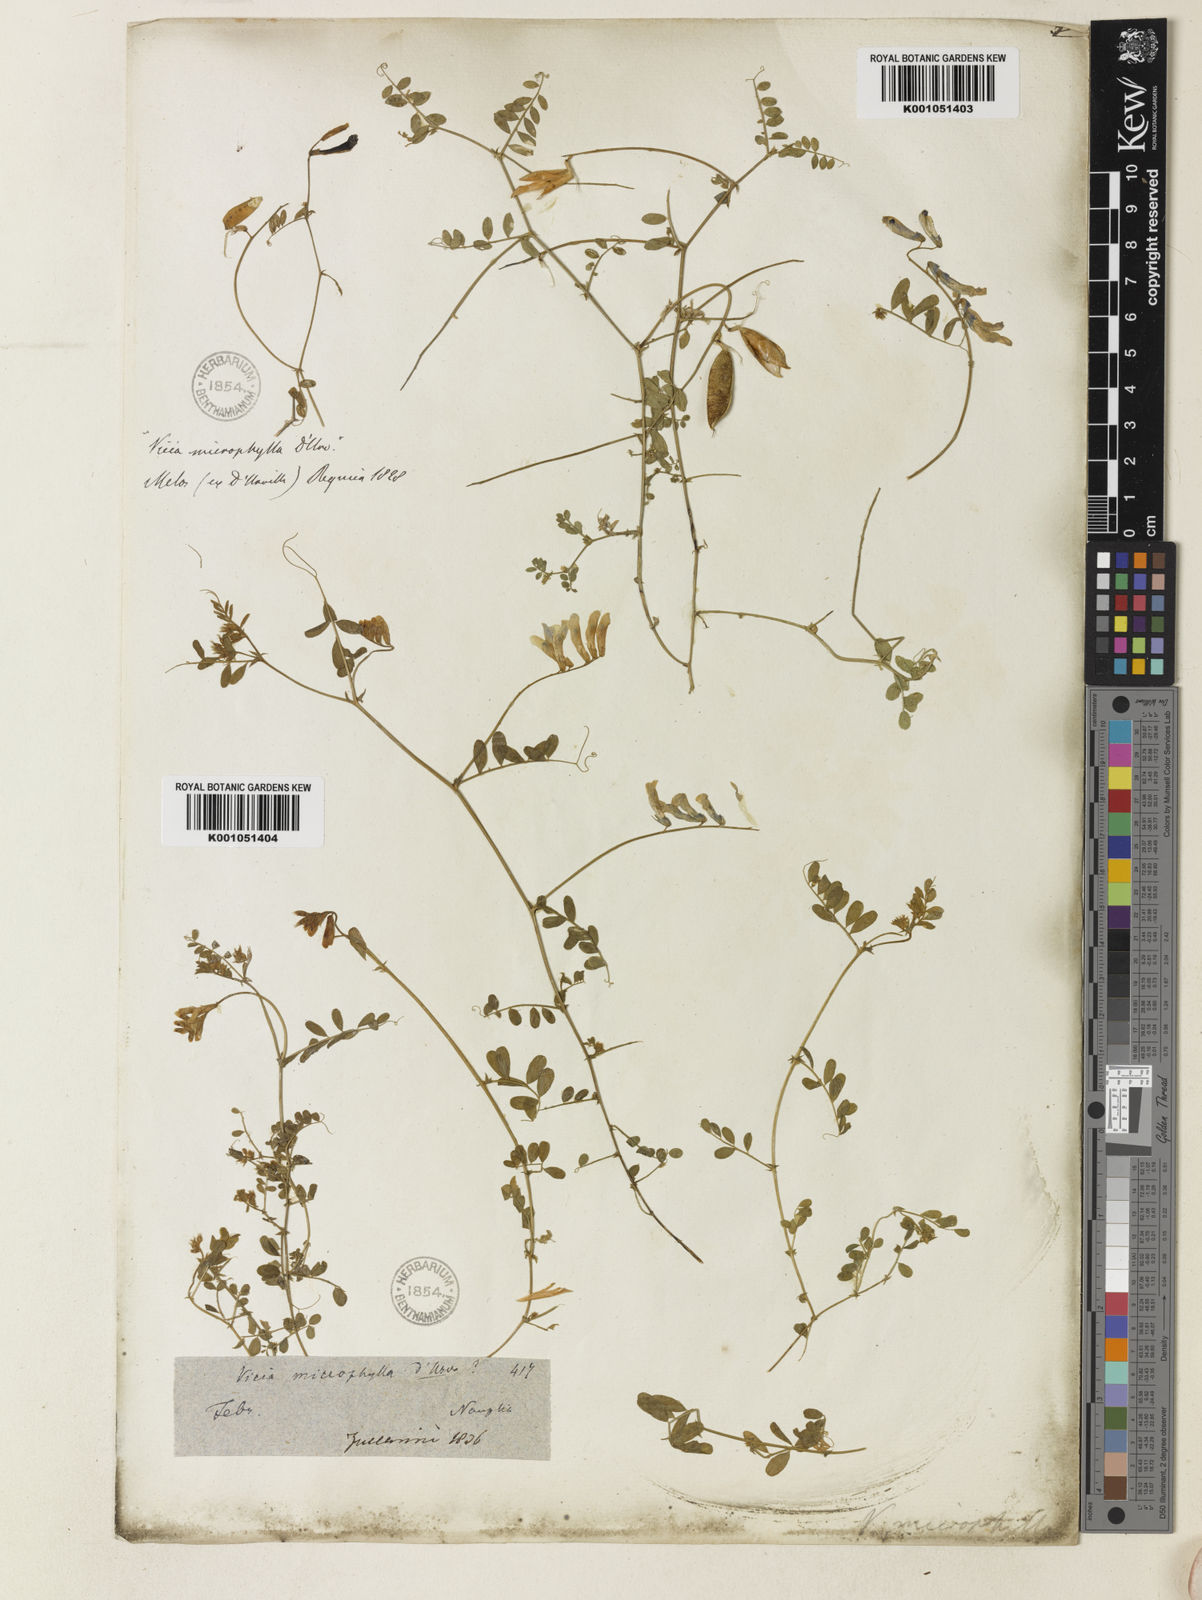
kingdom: Plantae
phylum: Tracheophyta
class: Magnoliopsida
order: Fabales
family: Fabaceae
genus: Vicia
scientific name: Vicia villosa
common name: Fodder vetch
